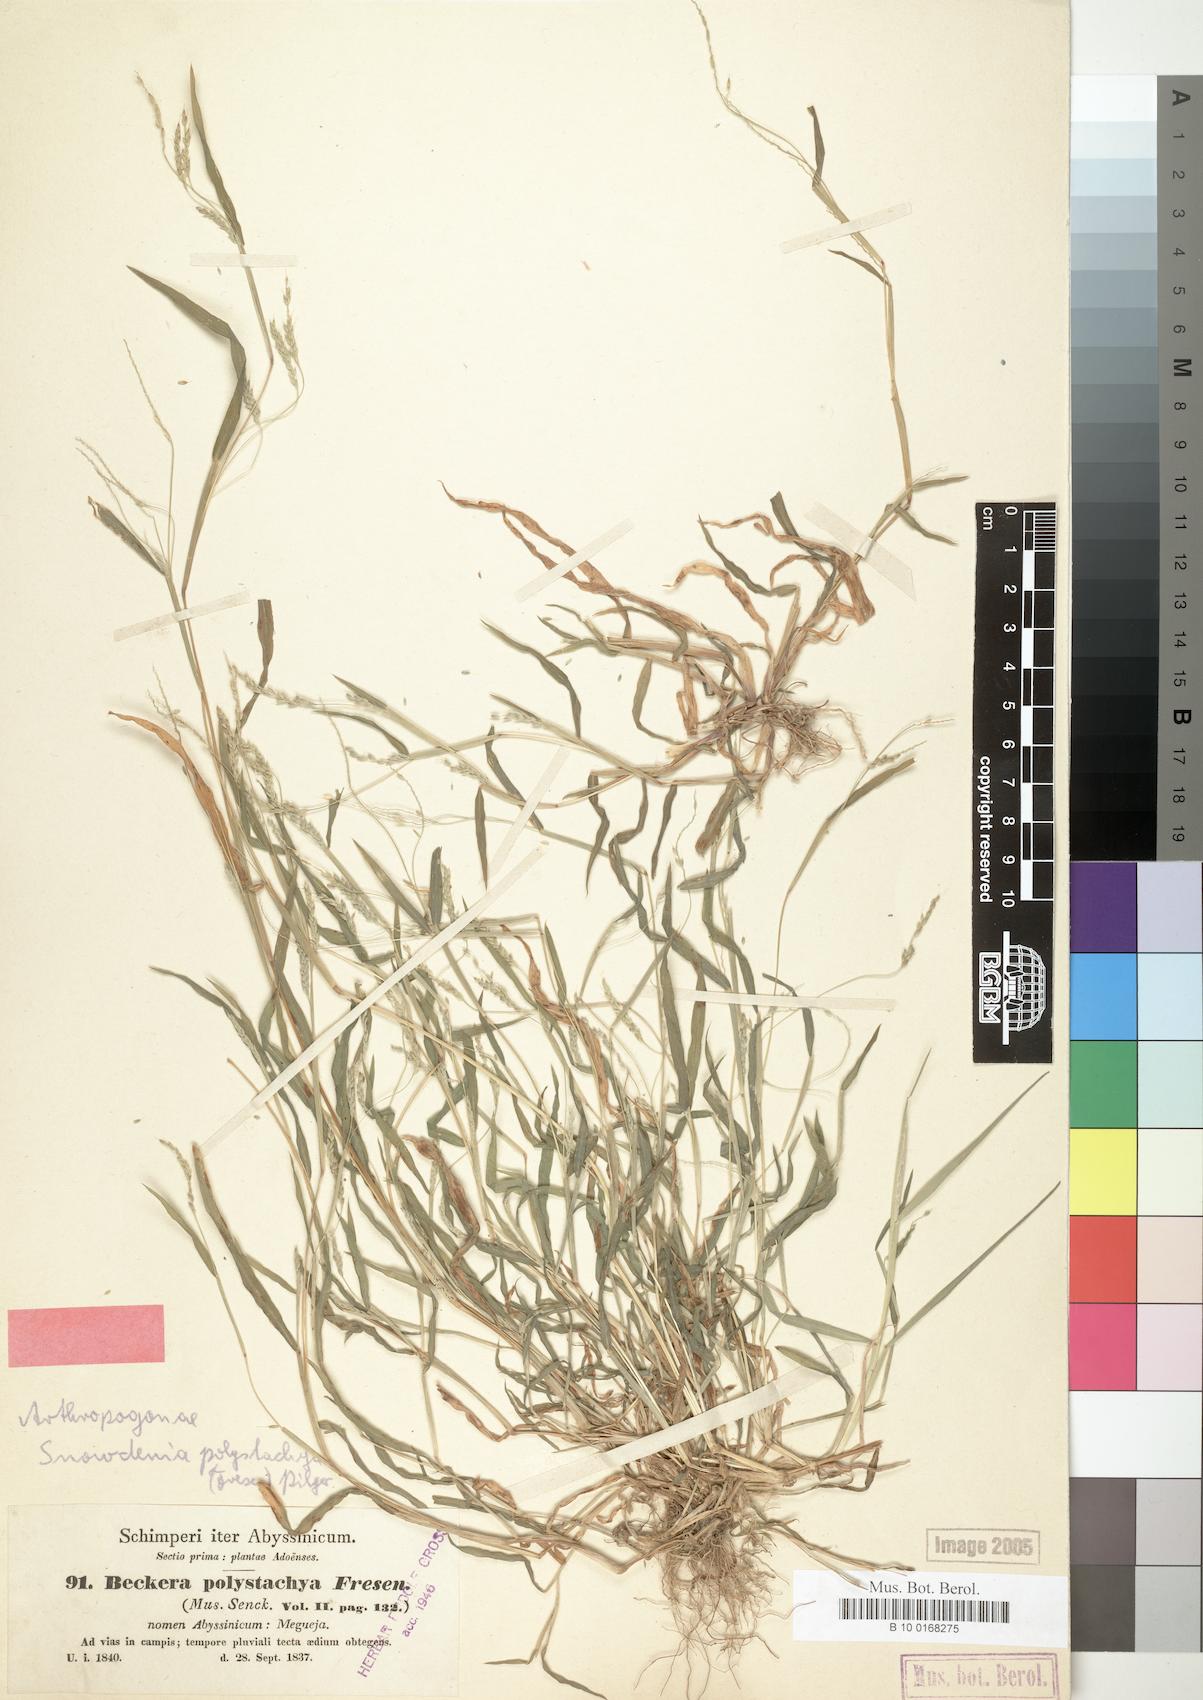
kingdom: Plantae
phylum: Tracheophyta
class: Liliopsida
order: Poales
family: Poaceae
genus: Snowdenia
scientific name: Snowdenia polystachya
